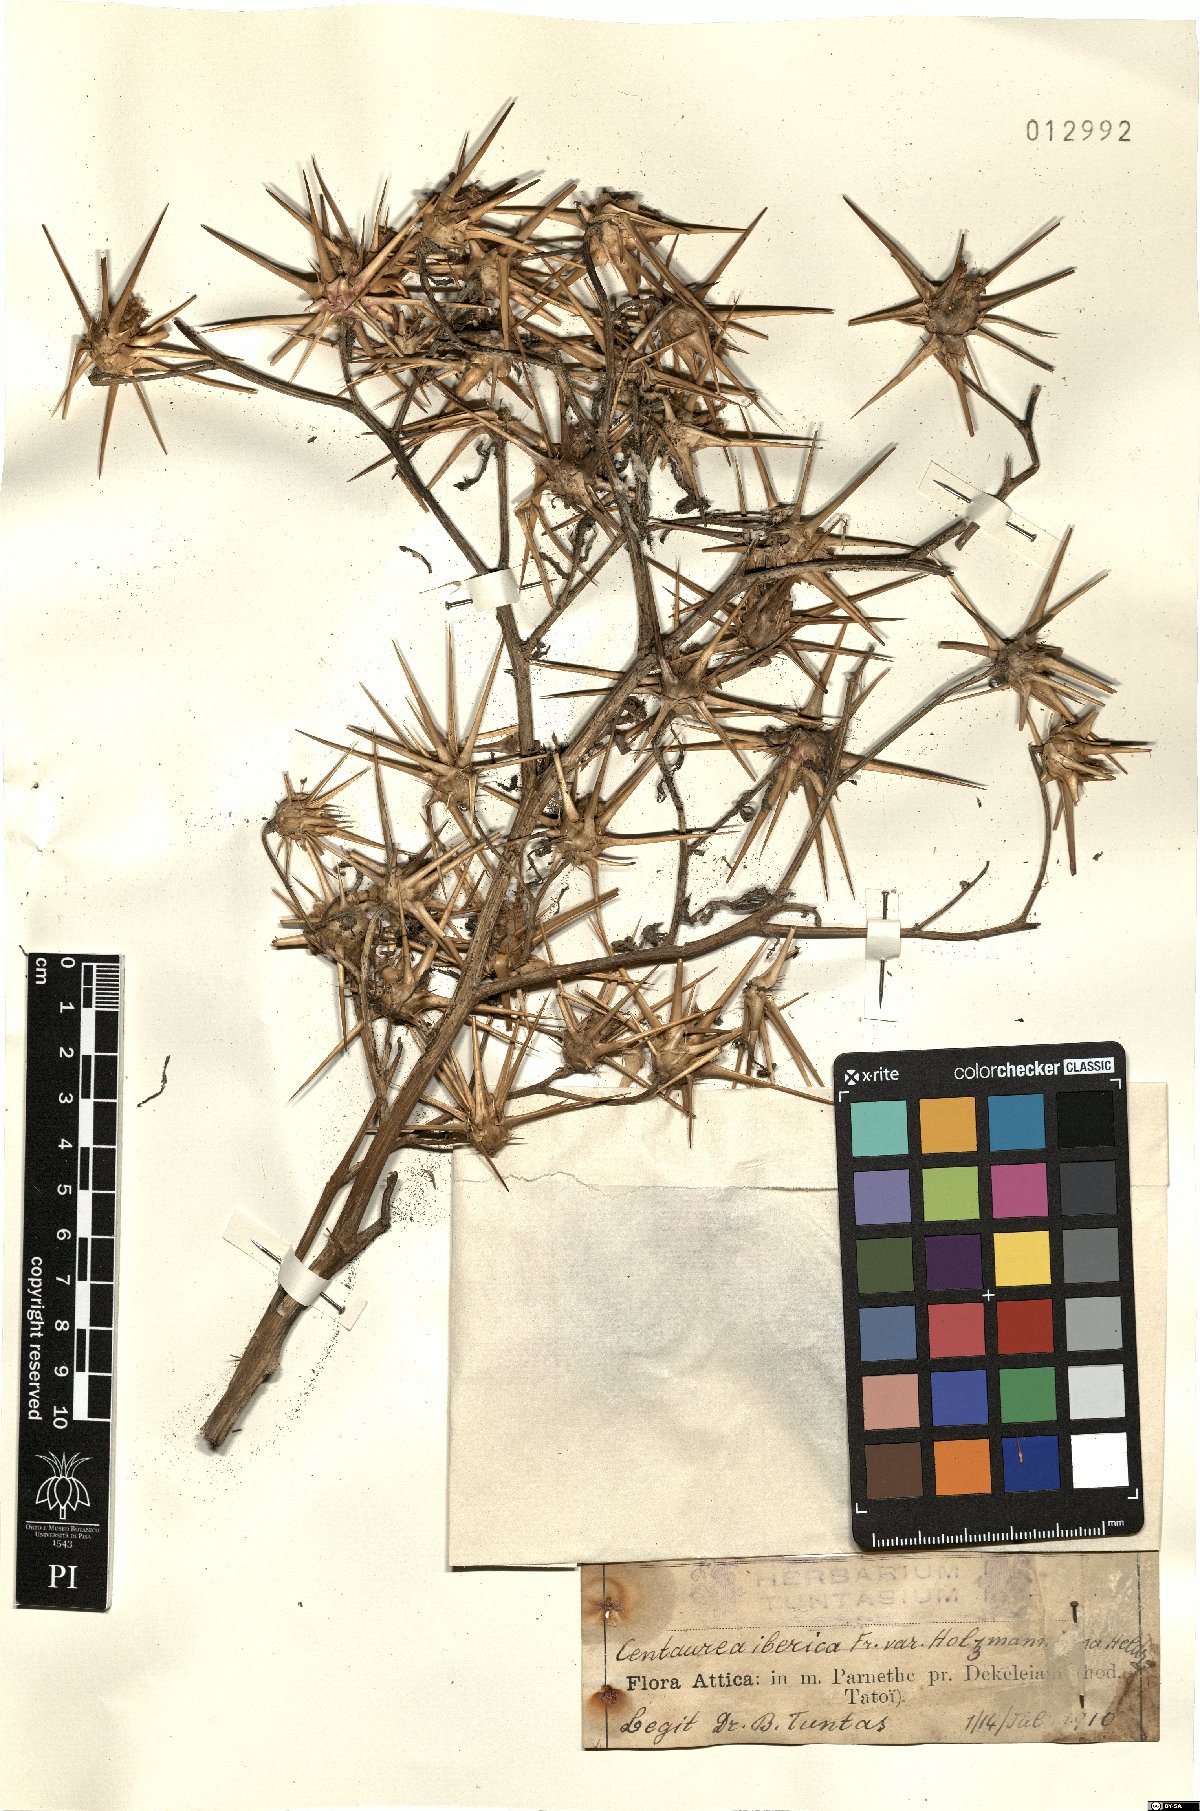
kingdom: Plantae
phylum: Tracheophyta
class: Magnoliopsida
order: Asterales
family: Asteraceae
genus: Centaurea
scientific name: Centaurea iberica
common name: Iberian knapweed
